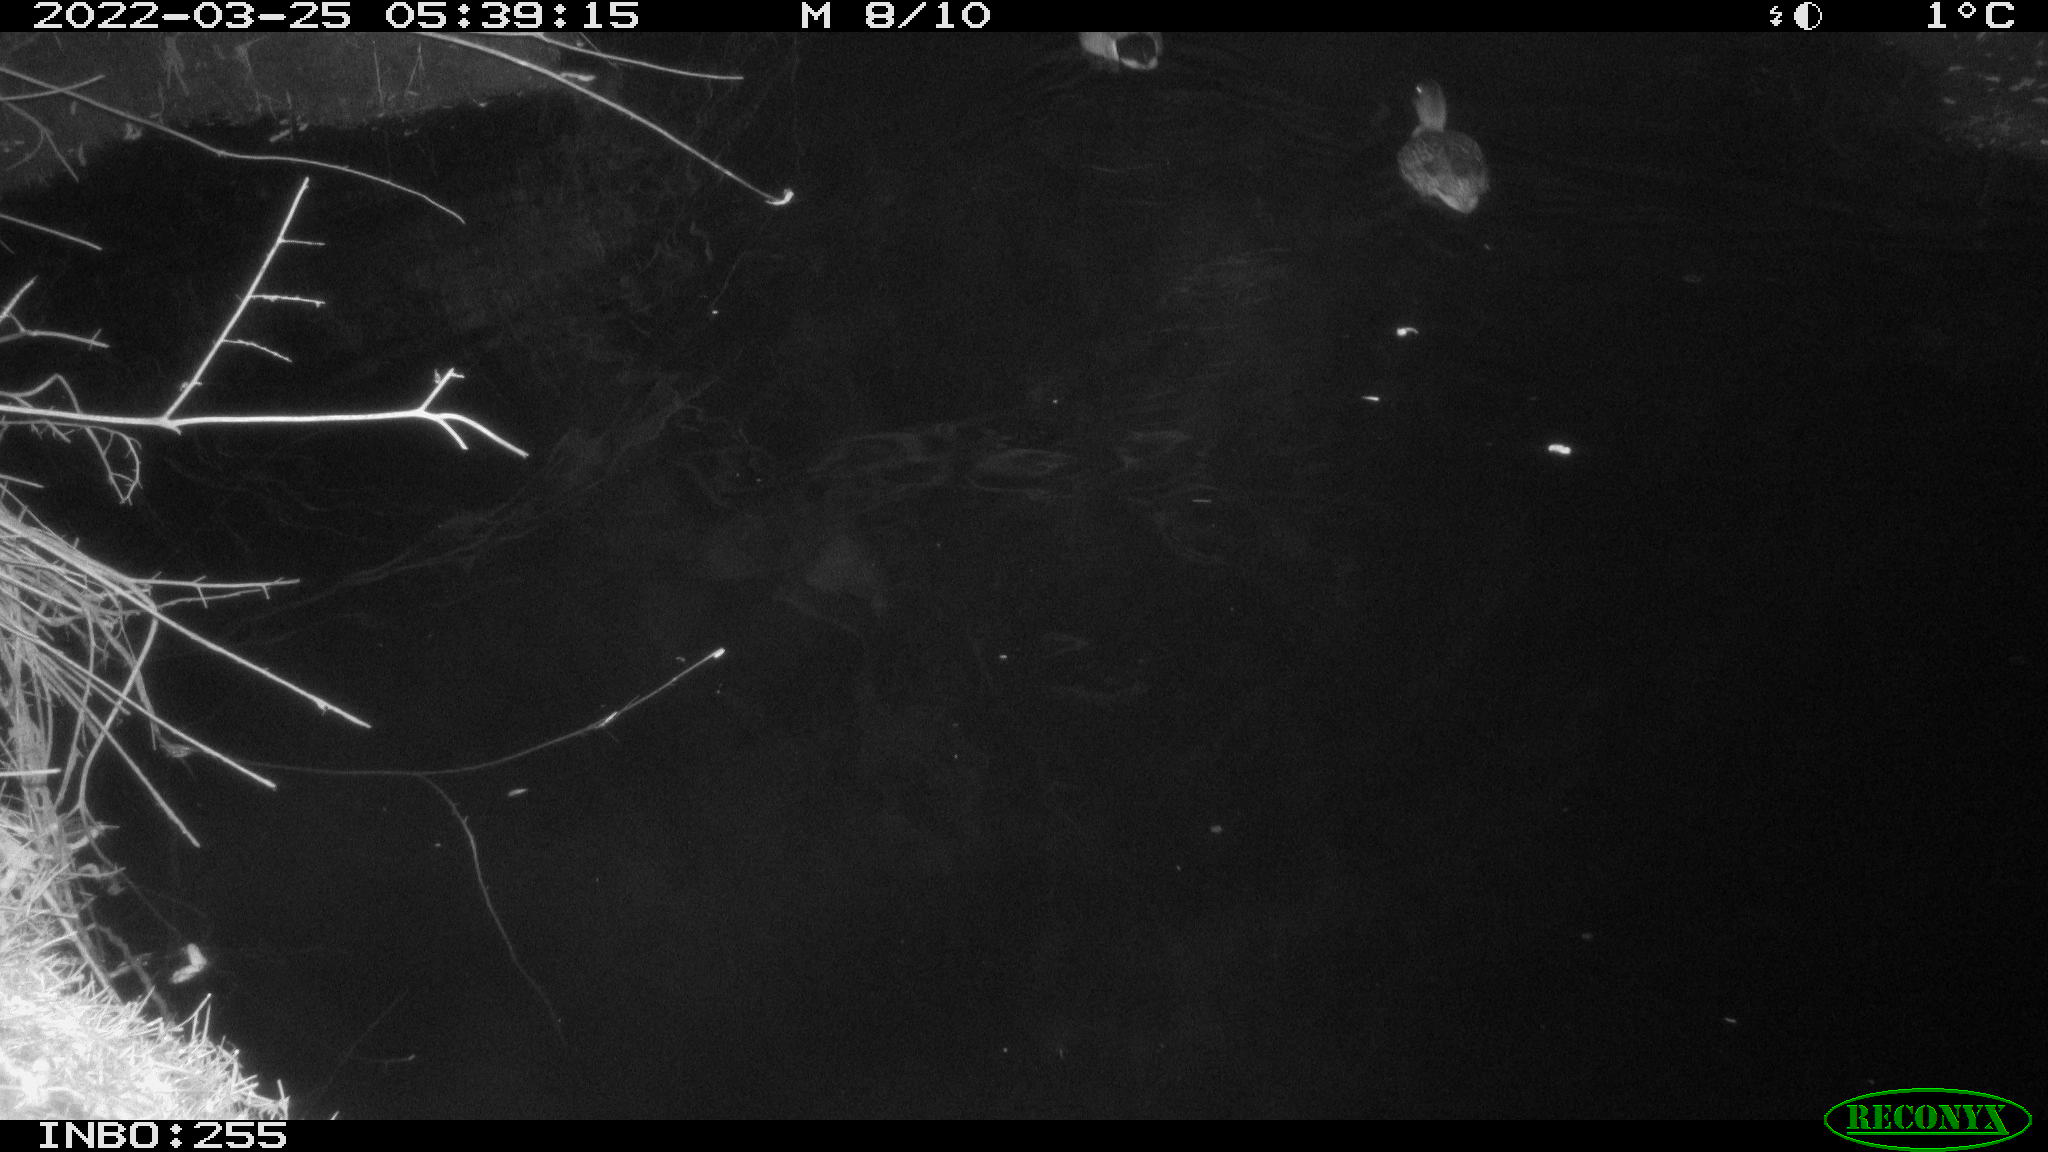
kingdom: Animalia
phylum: Chordata
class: Aves
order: Anseriformes
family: Anatidae
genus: Anas
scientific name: Anas platyrhynchos
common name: Mallard
